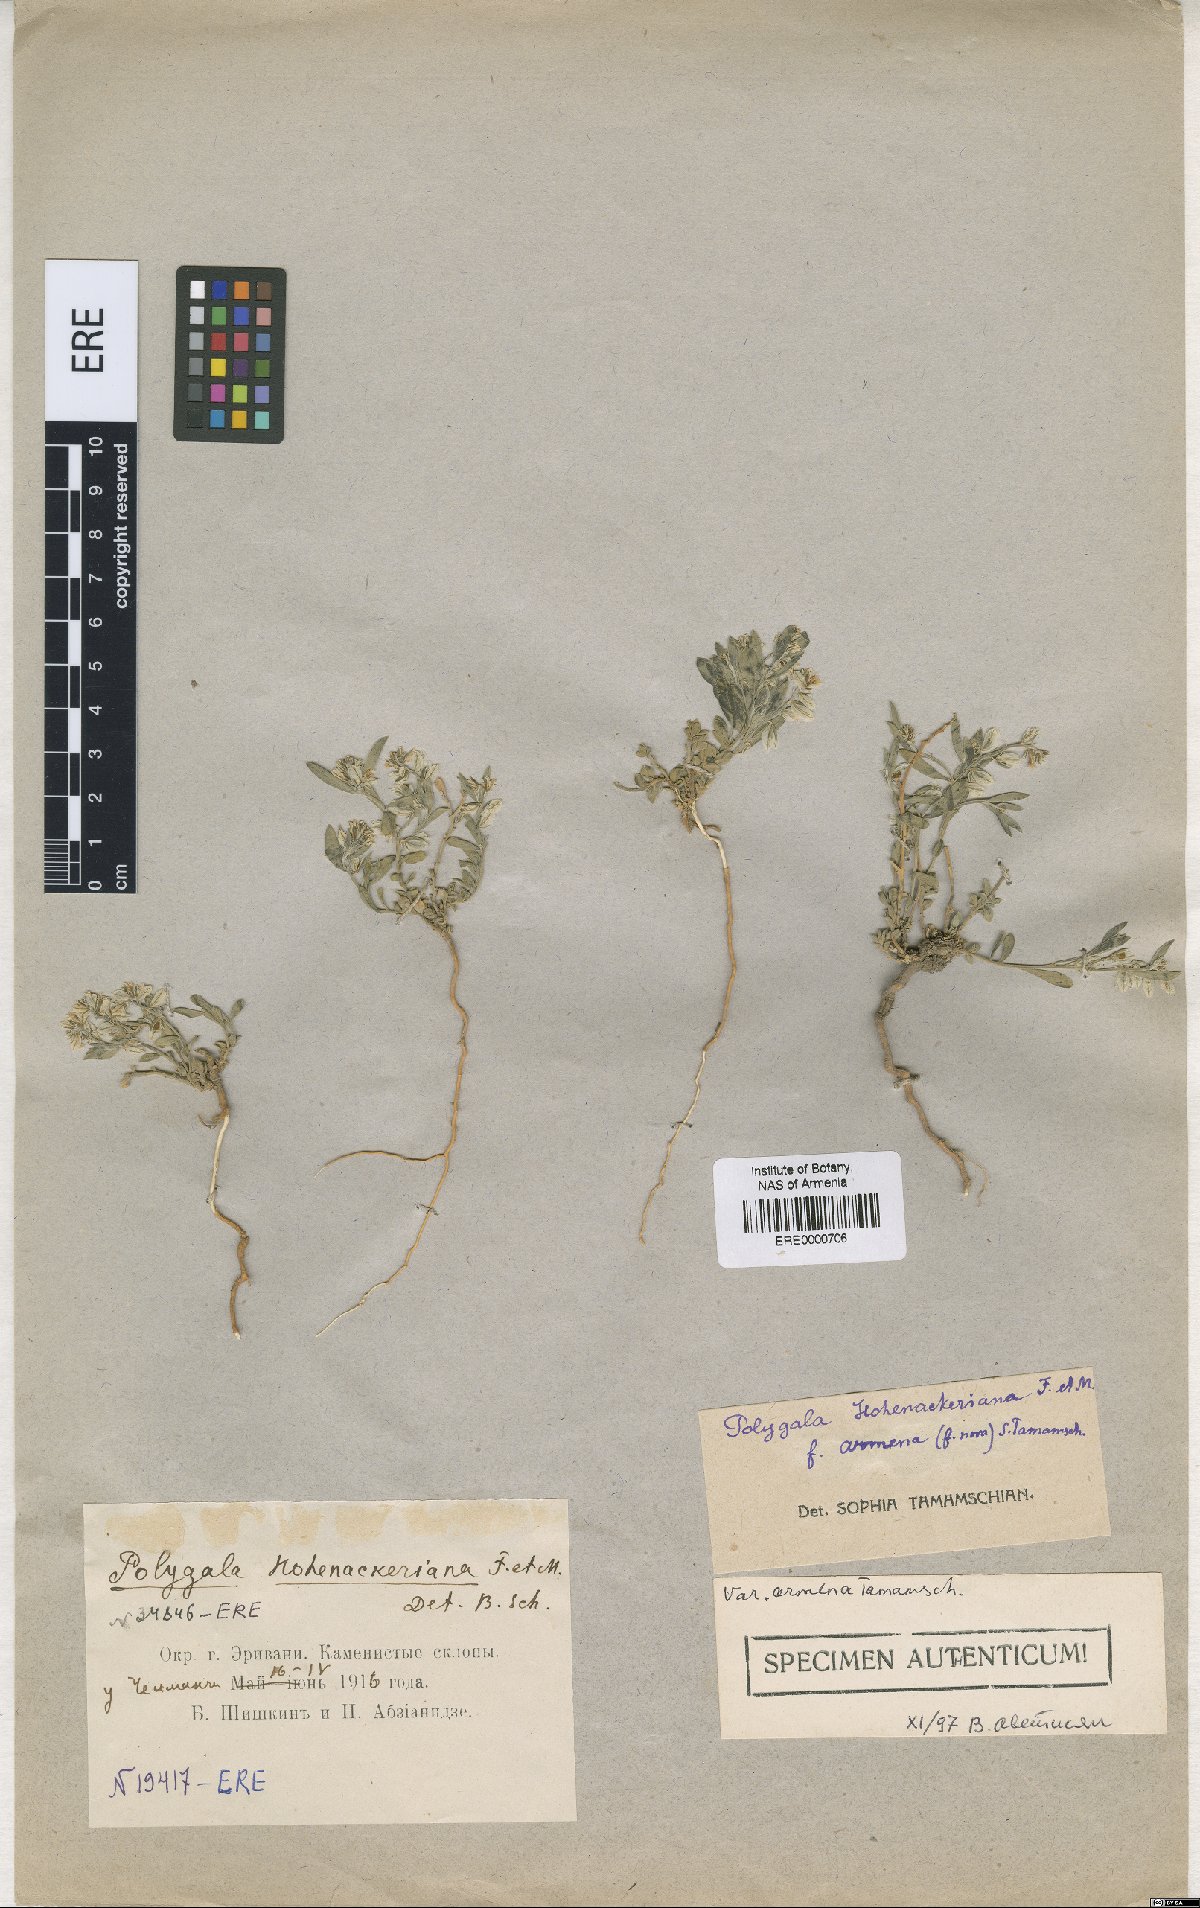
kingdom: Plantae
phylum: Tracheophyta
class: Magnoliopsida
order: Fabales
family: Polygalaceae
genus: Polygala
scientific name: Polygala hohenackeriana
